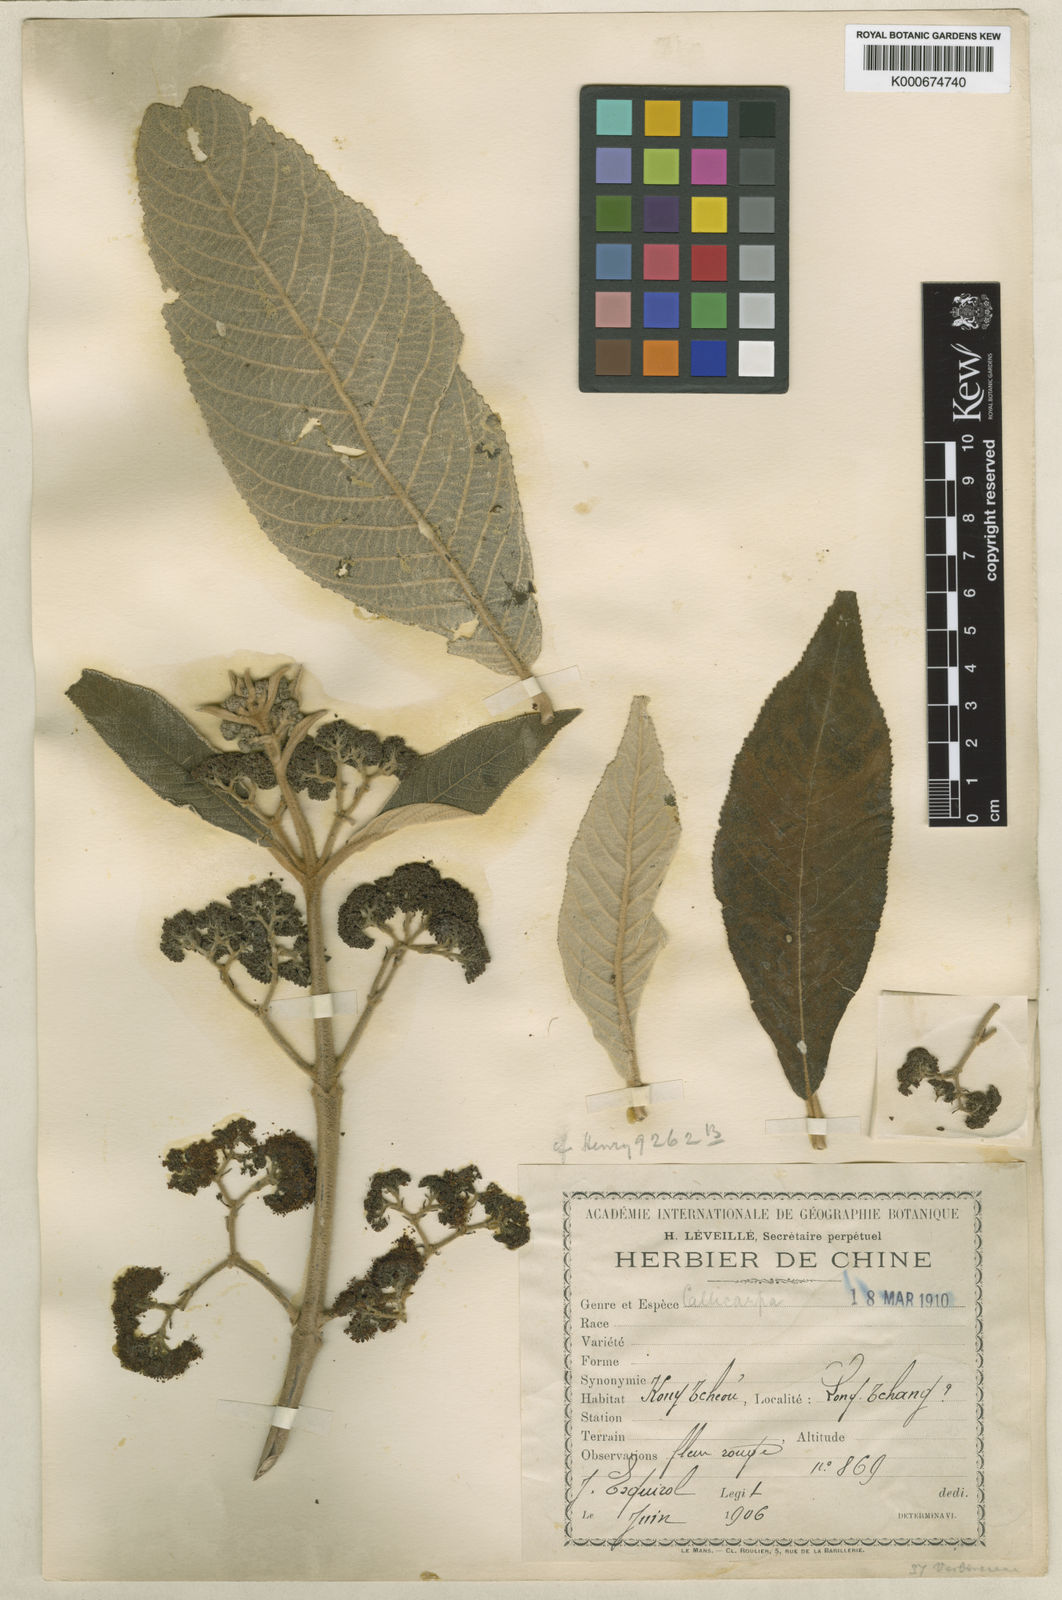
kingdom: Plantae
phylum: Tracheophyta
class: Magnoliopsida
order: Lamiales
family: Lamiaceae
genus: Callicarpa
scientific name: Callicarpa macrophylla
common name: Urn-fruit beauty-berry
